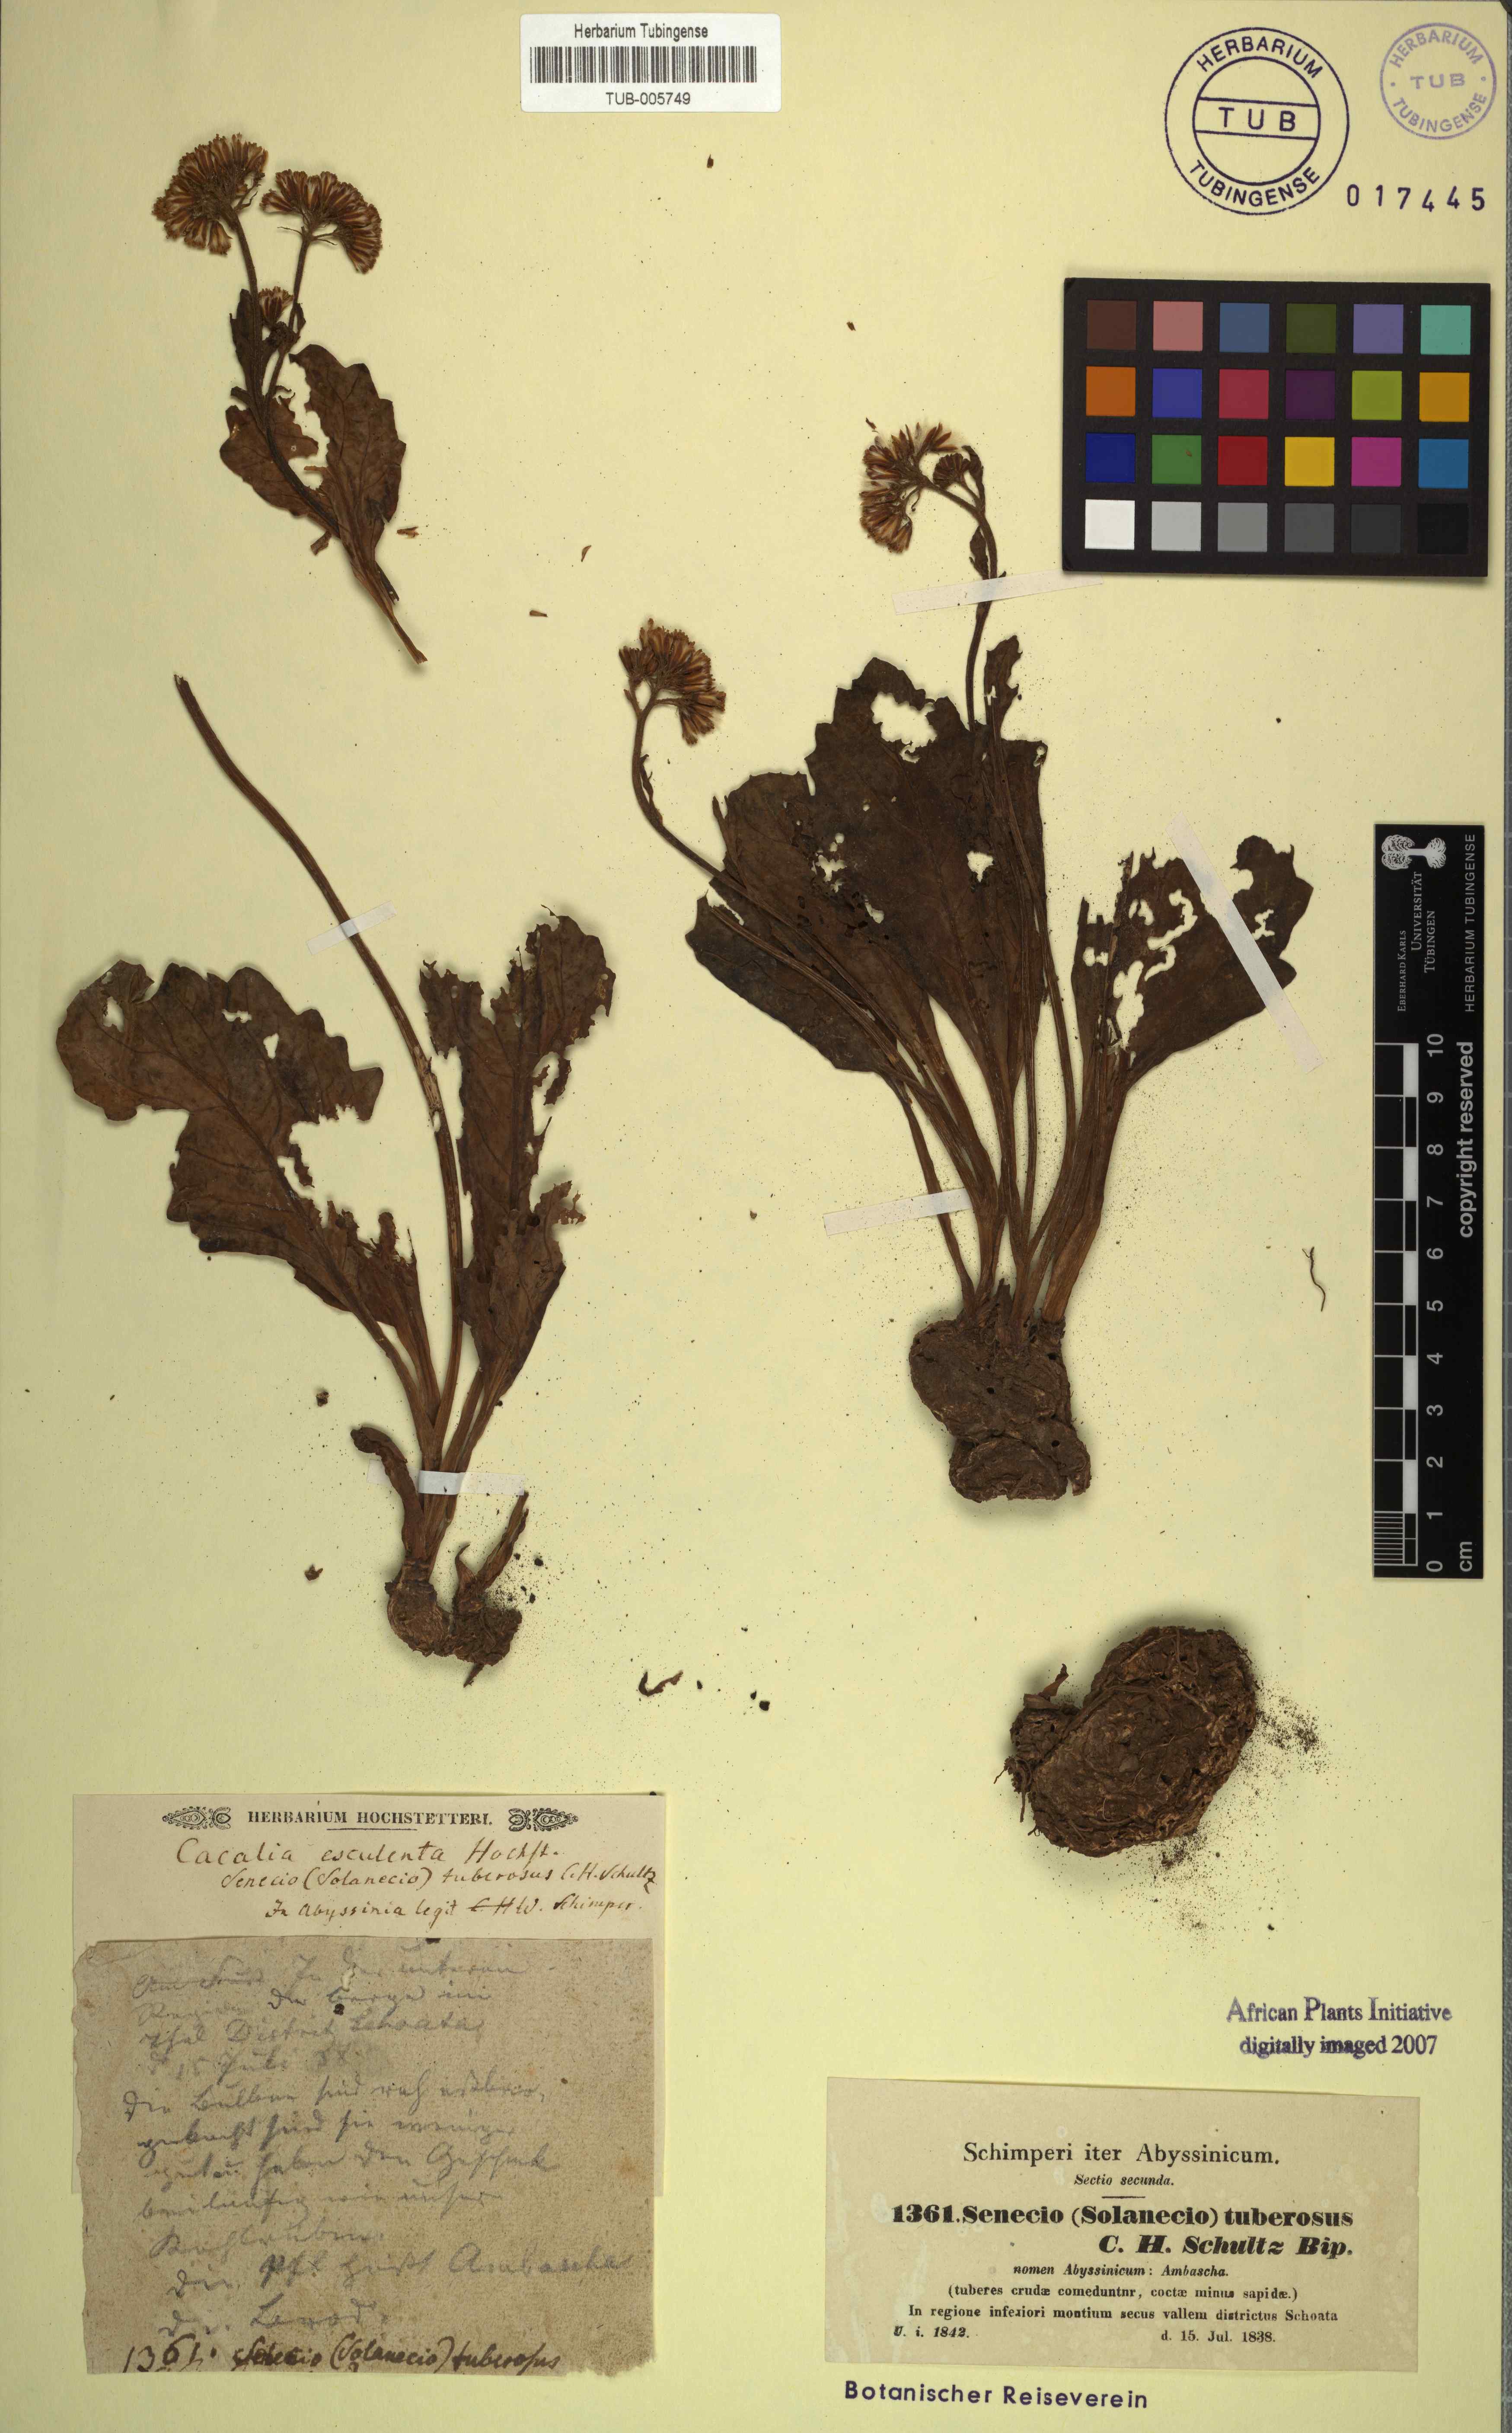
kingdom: Plantae
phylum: Tracheophyta
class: Magnoliopsida
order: Asterales
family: Asteraceae
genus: Solanecio
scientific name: Solanecio tuberosus
